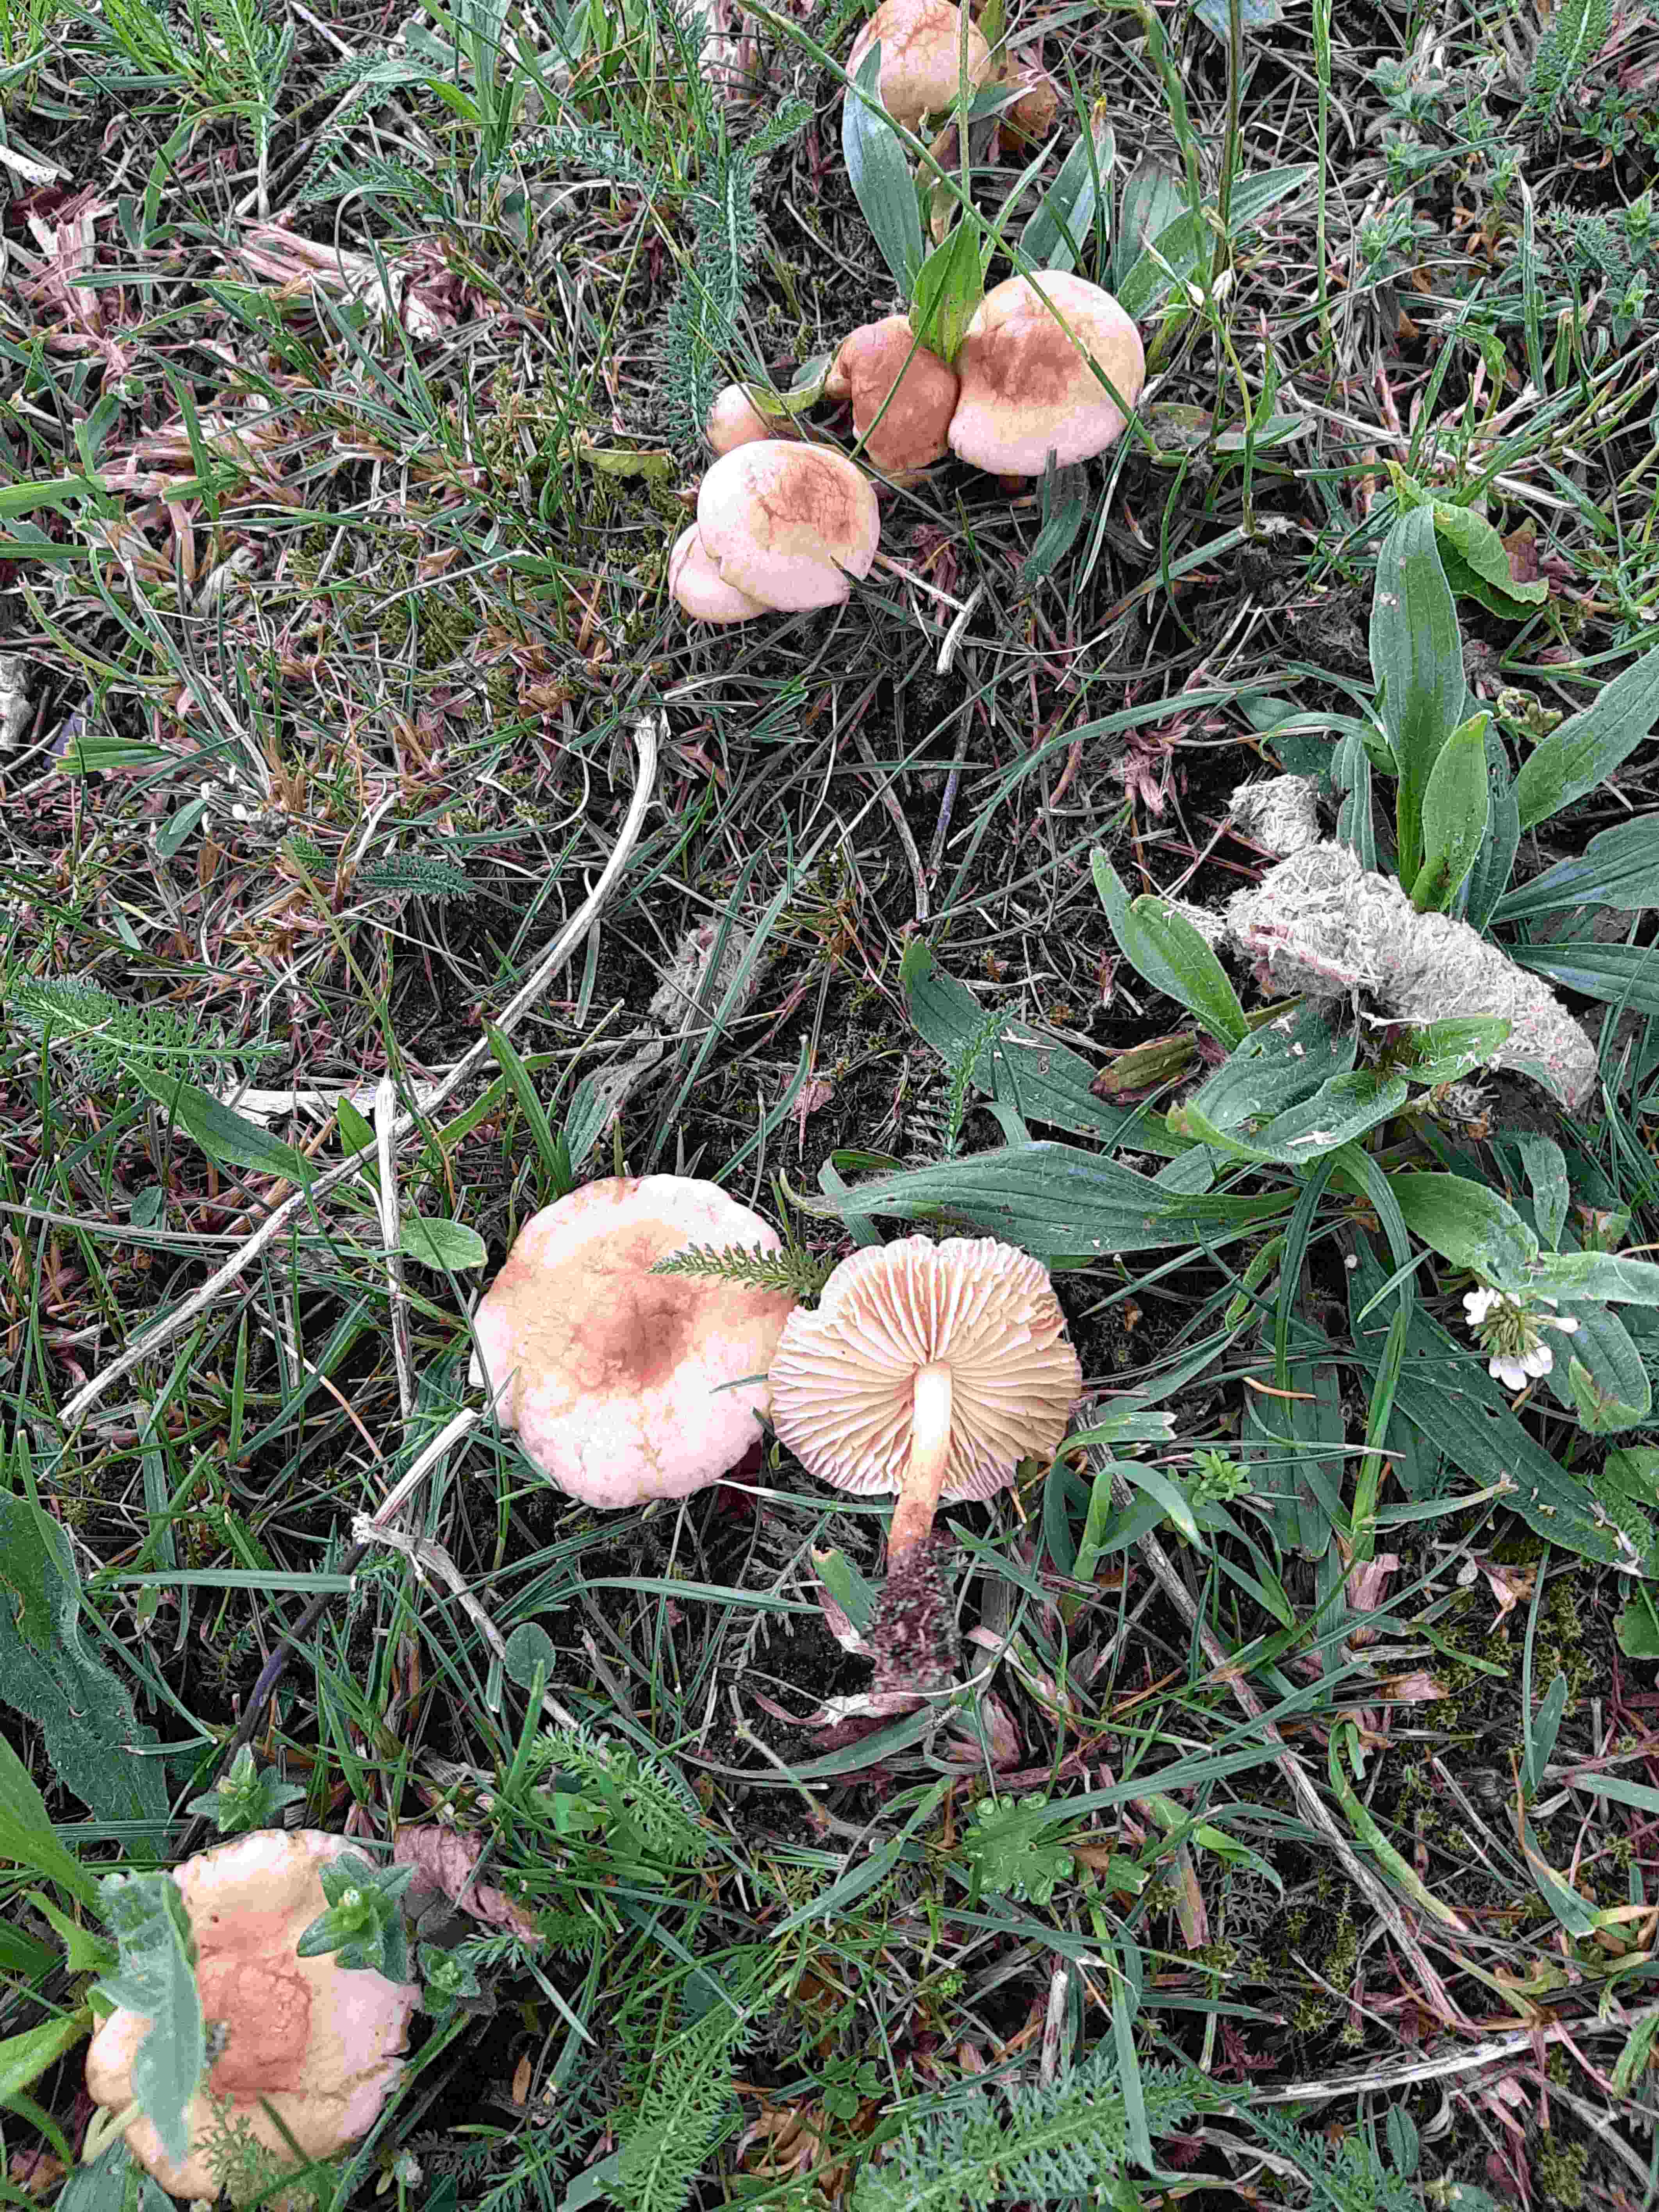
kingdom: Fungi
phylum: Basidiomycota
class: Agaricomycetes
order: Agaricales
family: Marasmiaceae
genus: Marasmius
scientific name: Marasmius oreades
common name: elledans-bruskhat
